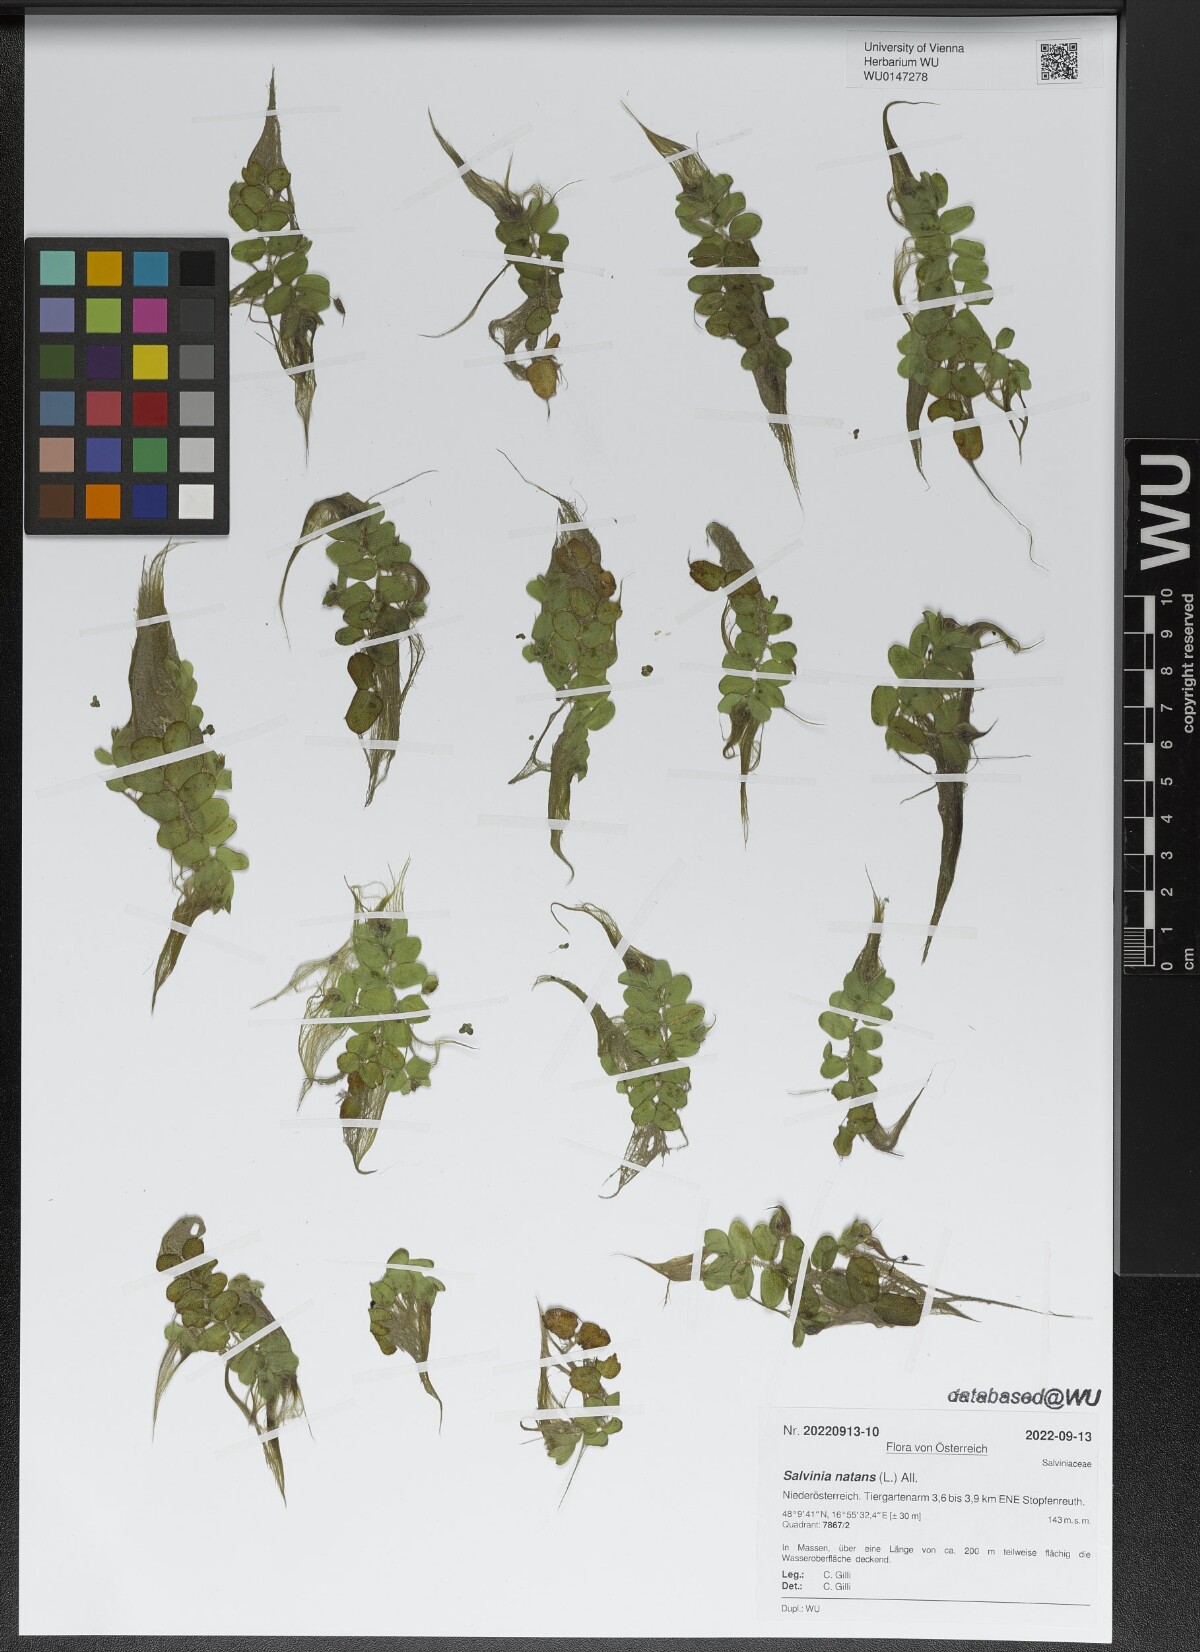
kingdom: Plantae
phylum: Tracheophyta
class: Polypodiopsida
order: Salviniales
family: Salviniaceae
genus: Salvinia
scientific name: Salvinia natans
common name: Floating fern
